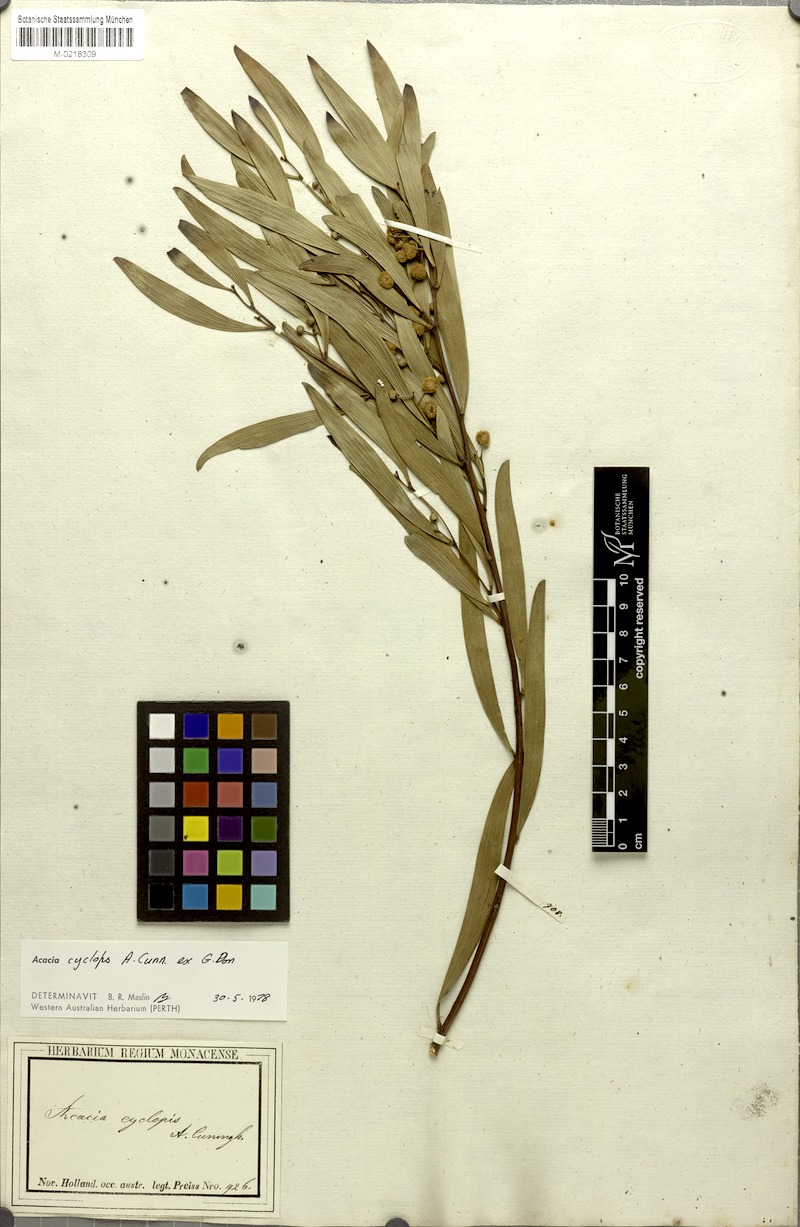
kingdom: Plantae
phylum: Tracheophyta
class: Magnoliopsida
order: Fabales
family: Fabaceae
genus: Acacia
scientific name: Acacia cyclops
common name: Coastal wattle
